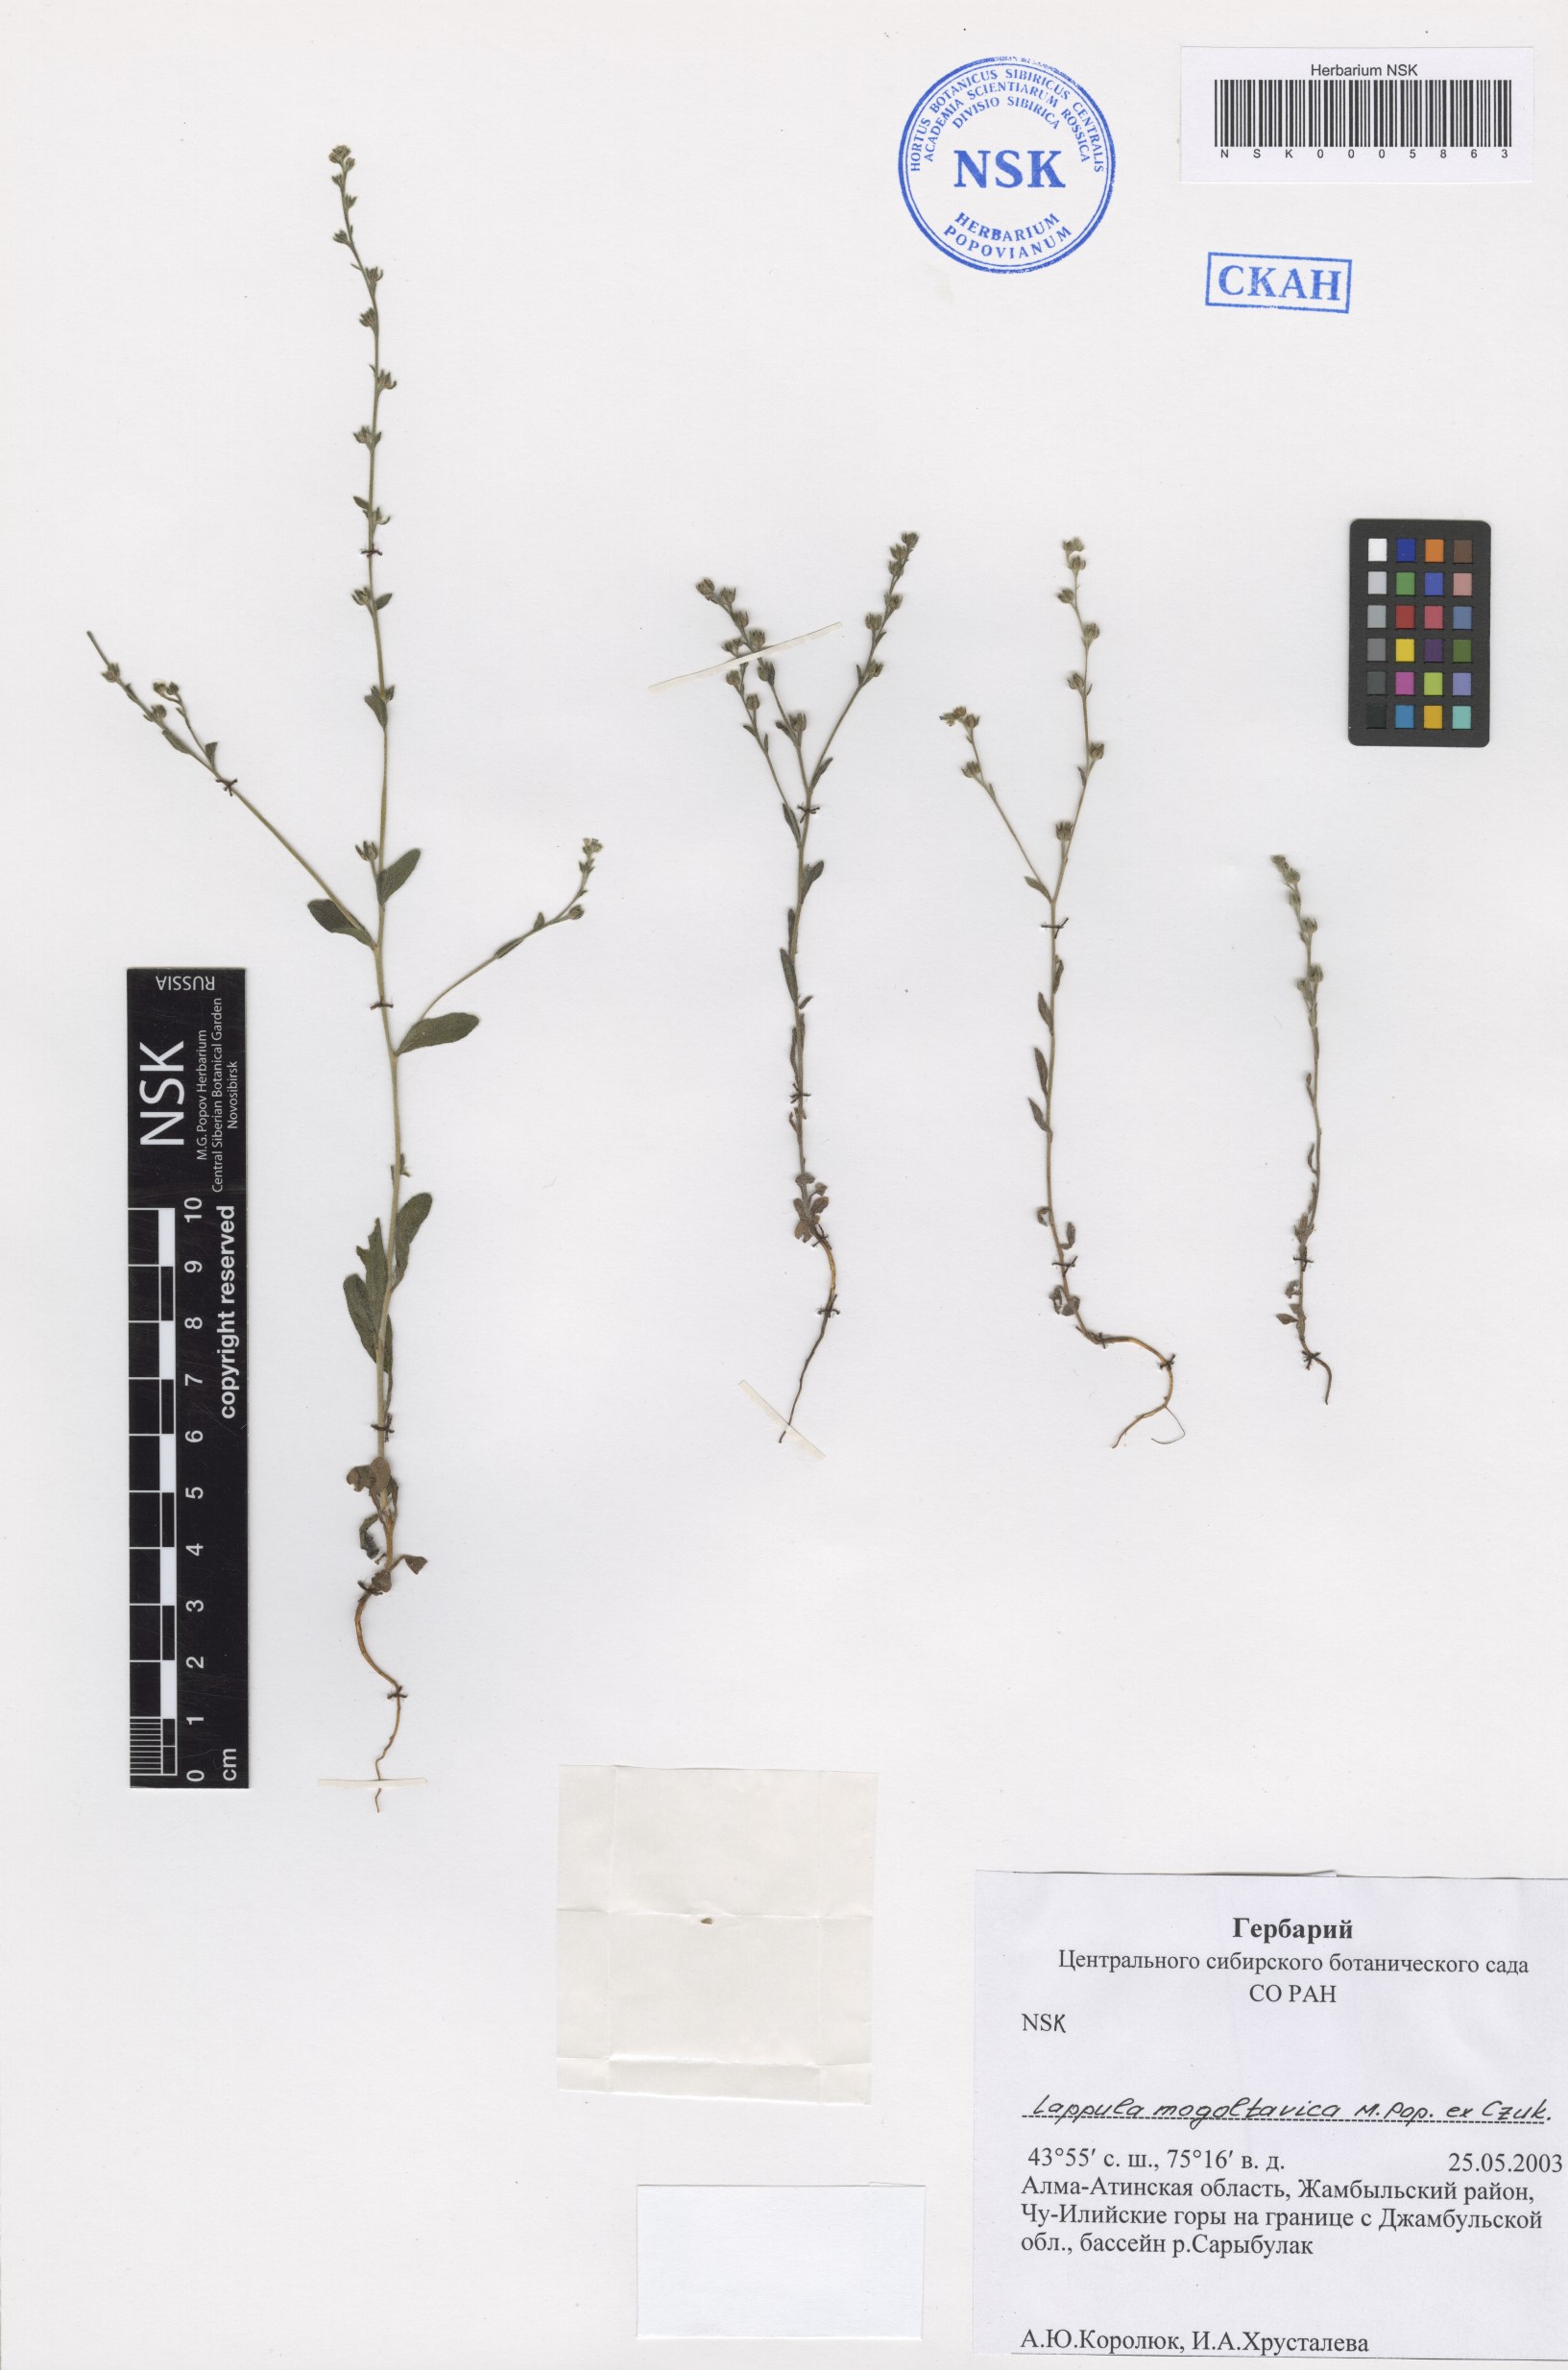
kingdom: Plantae
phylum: Tracheophyta
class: Magnoliopsida
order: Boraginales
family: Boraginaceae
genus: Lappula
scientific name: Lappula mogoltavica
